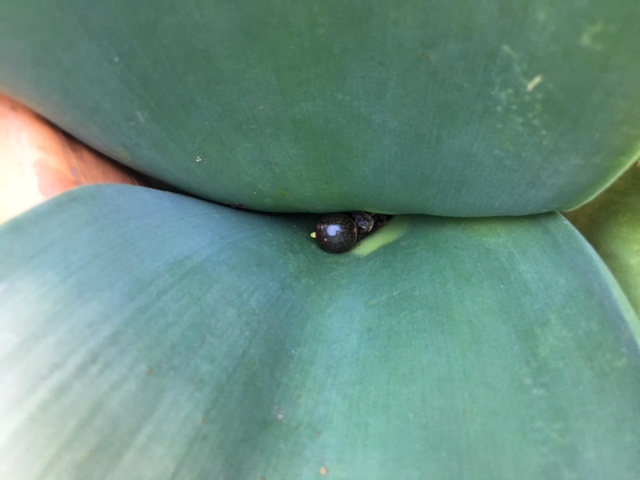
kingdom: Plantae
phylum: Tracheophyta
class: Liliopsida
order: Asparagales
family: Amaryllidaceae
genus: Haemanthus
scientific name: Haemanthus coccineus
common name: Cape-tulip
